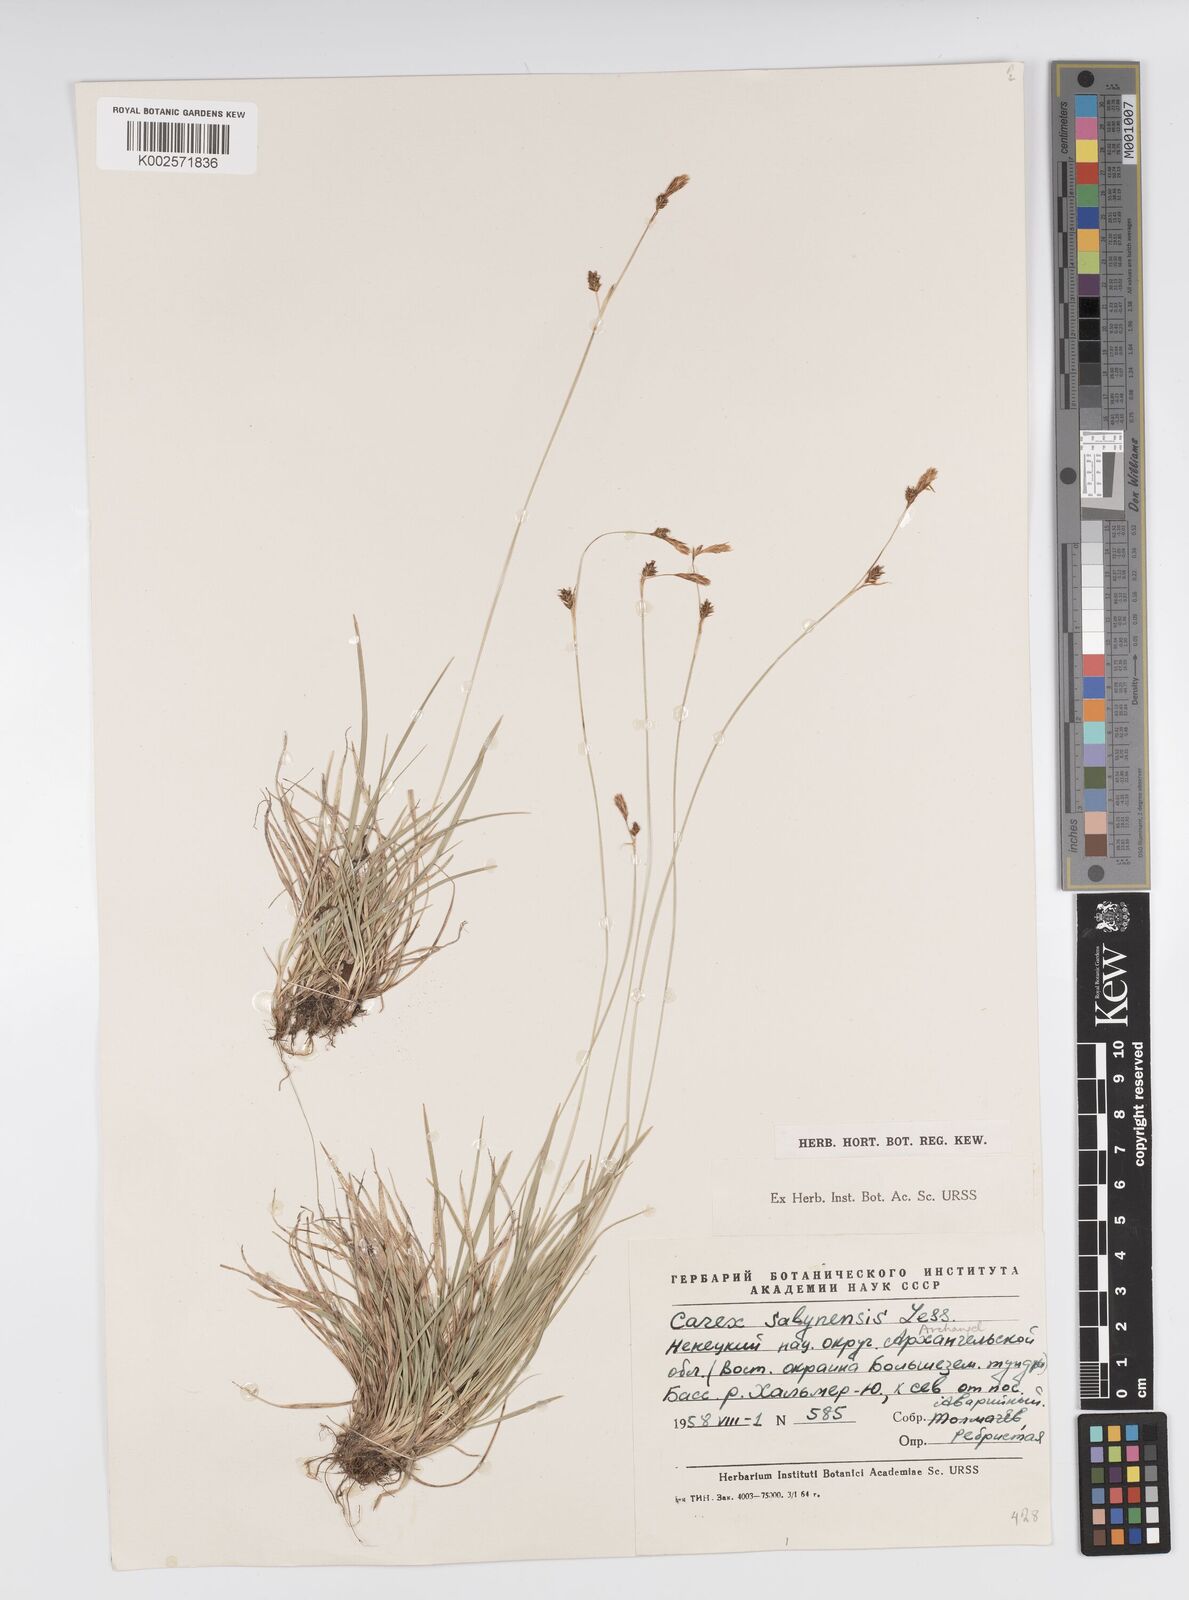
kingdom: Plantae
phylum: Tracheophyta
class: Liliopsida
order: Poales
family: Cyperaceae
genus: Carex
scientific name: Carex umbrosa
